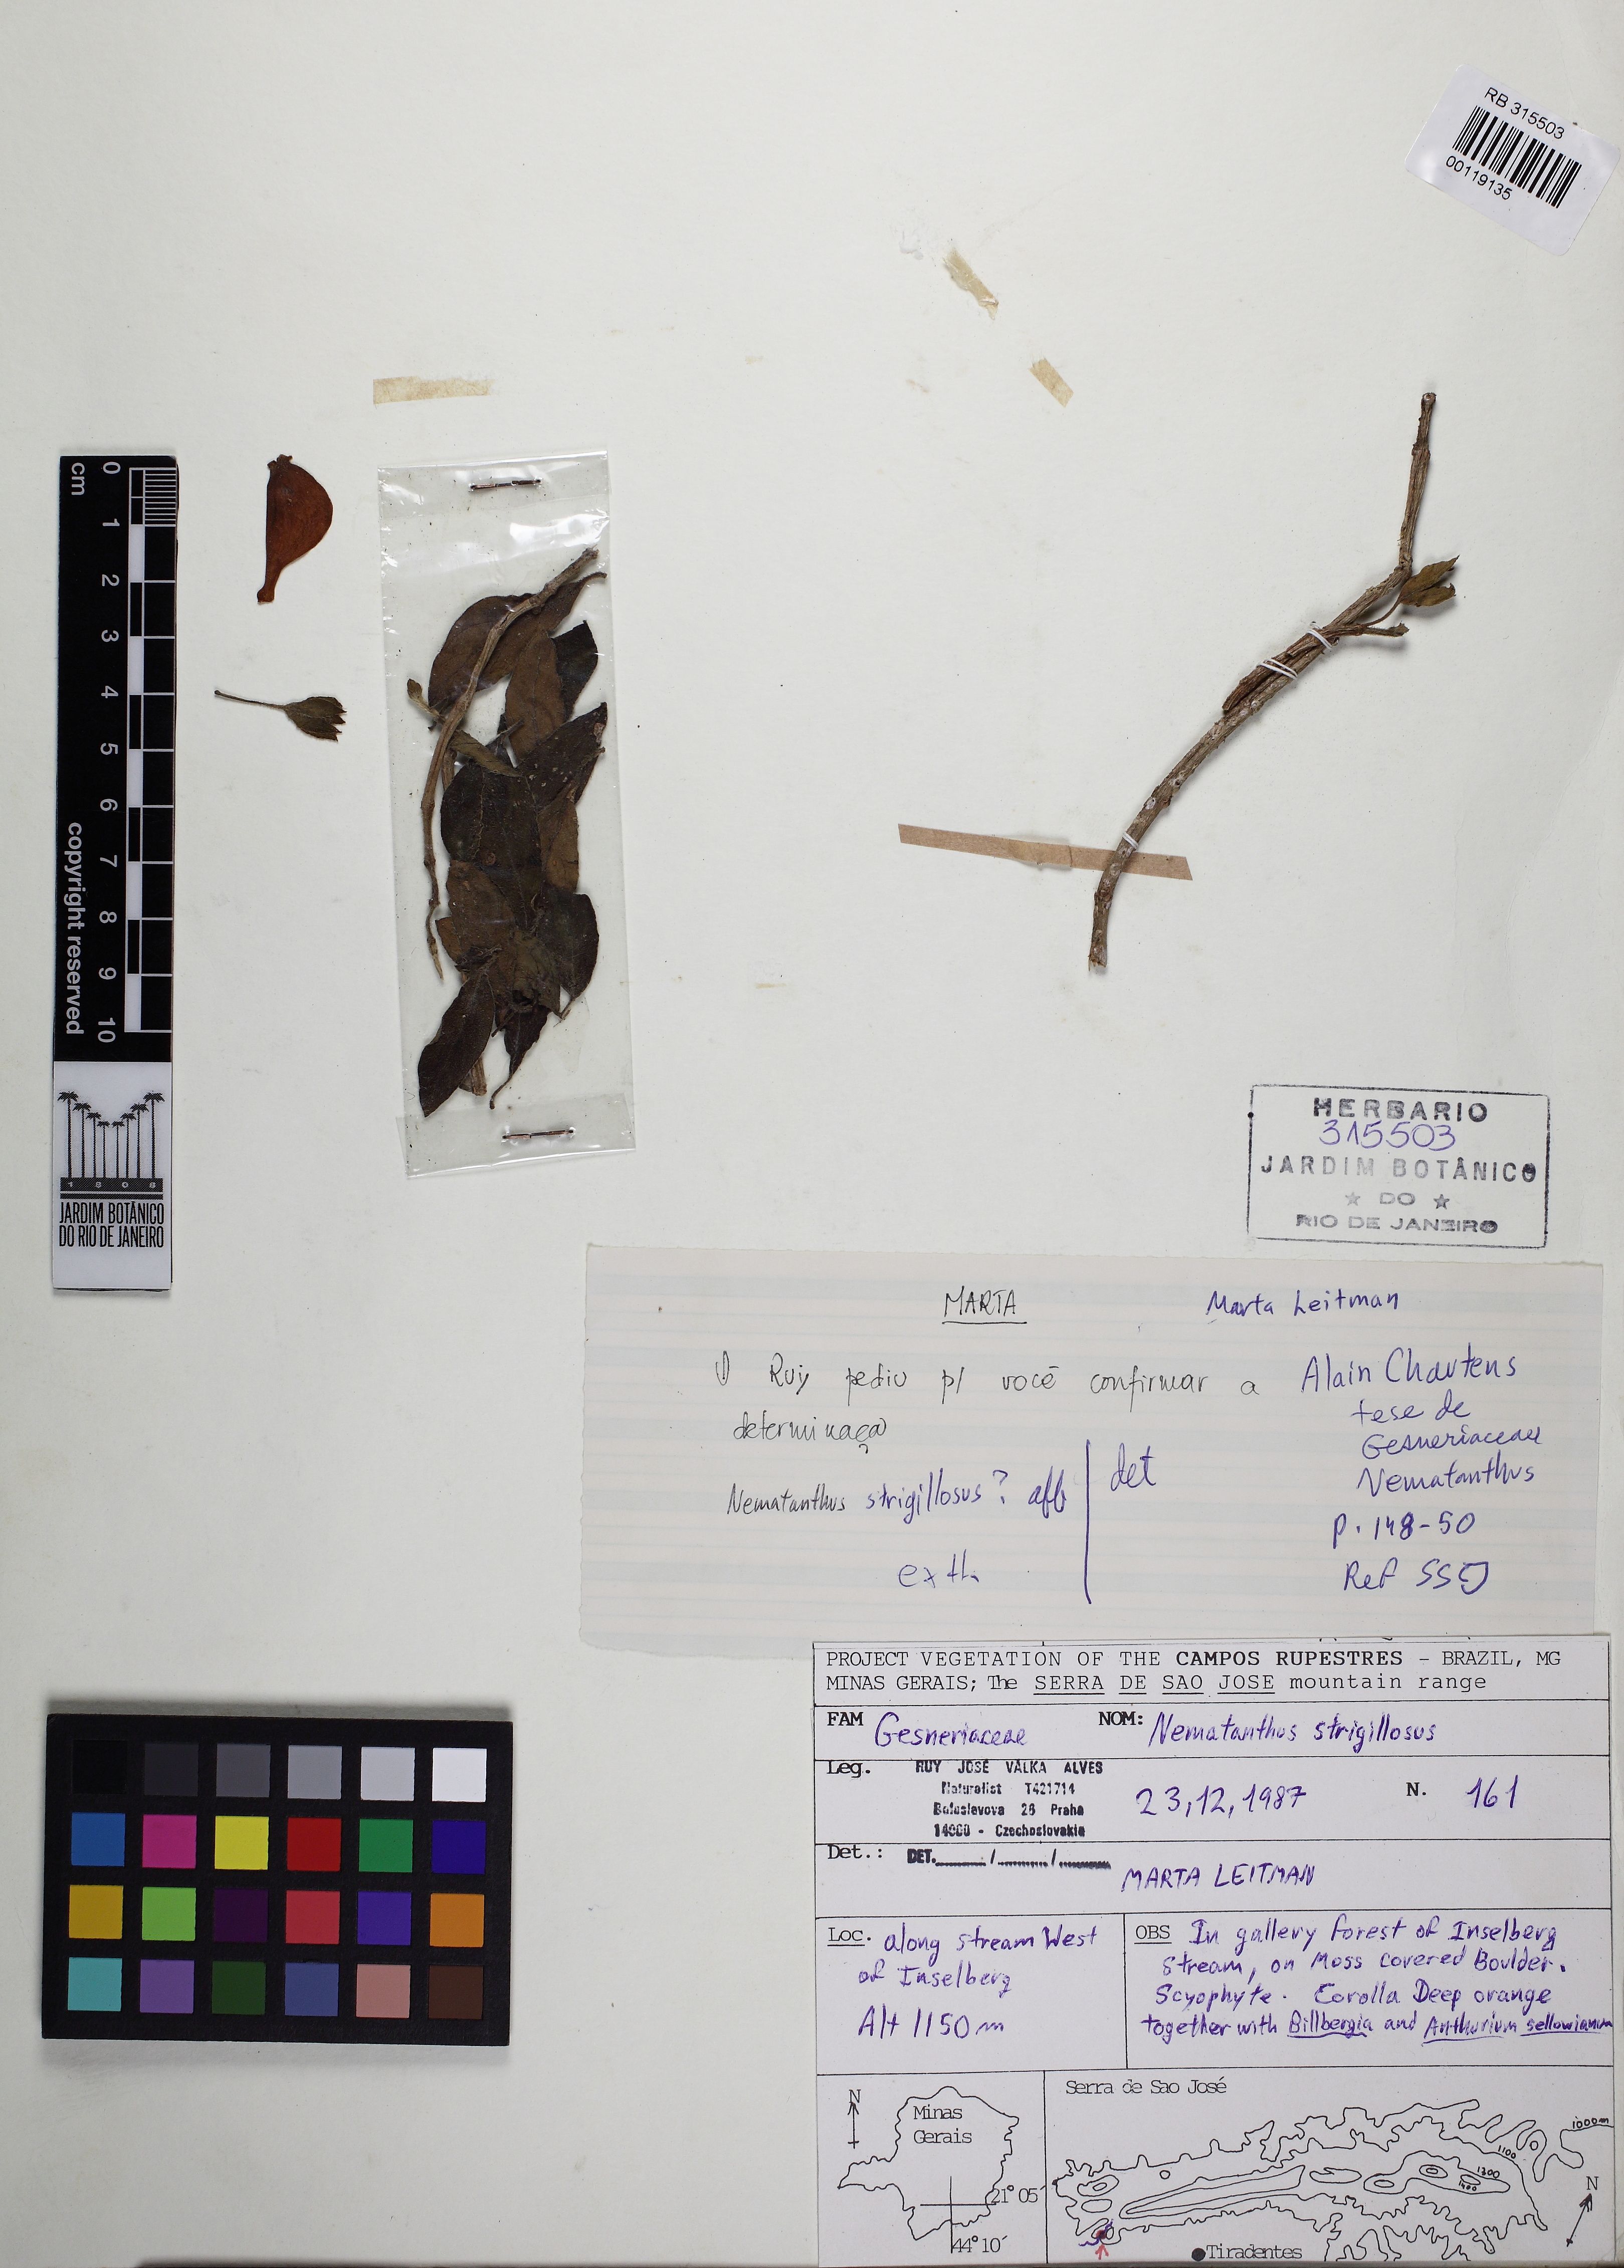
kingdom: Plantae
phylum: Tracheophyta
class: Magnoliopsida
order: Lamiales
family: Gesneriaceae
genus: Nematanthus
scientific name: Nematanthus strigillosus
